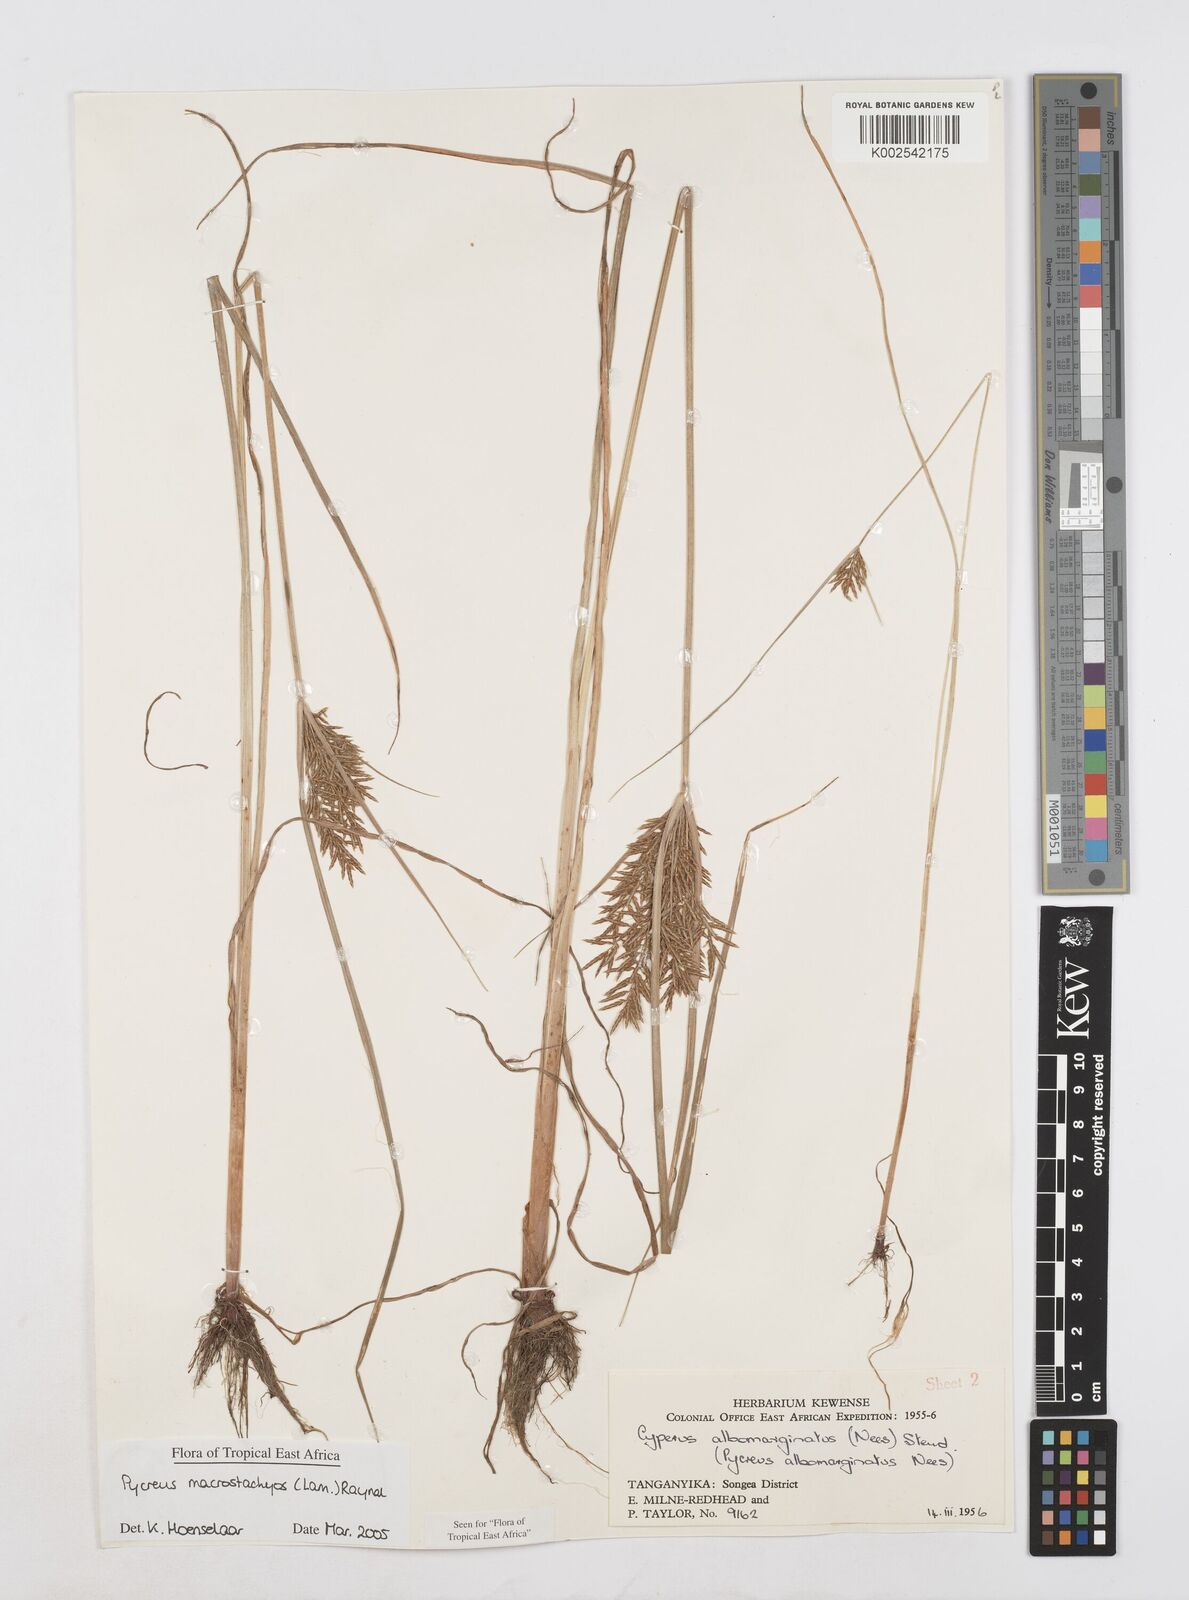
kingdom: Plantae
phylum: Tracheophyta
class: Liliopsida
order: Poales
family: Cyperaceae
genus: Cyperus
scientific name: Cyperus macrostachyos
